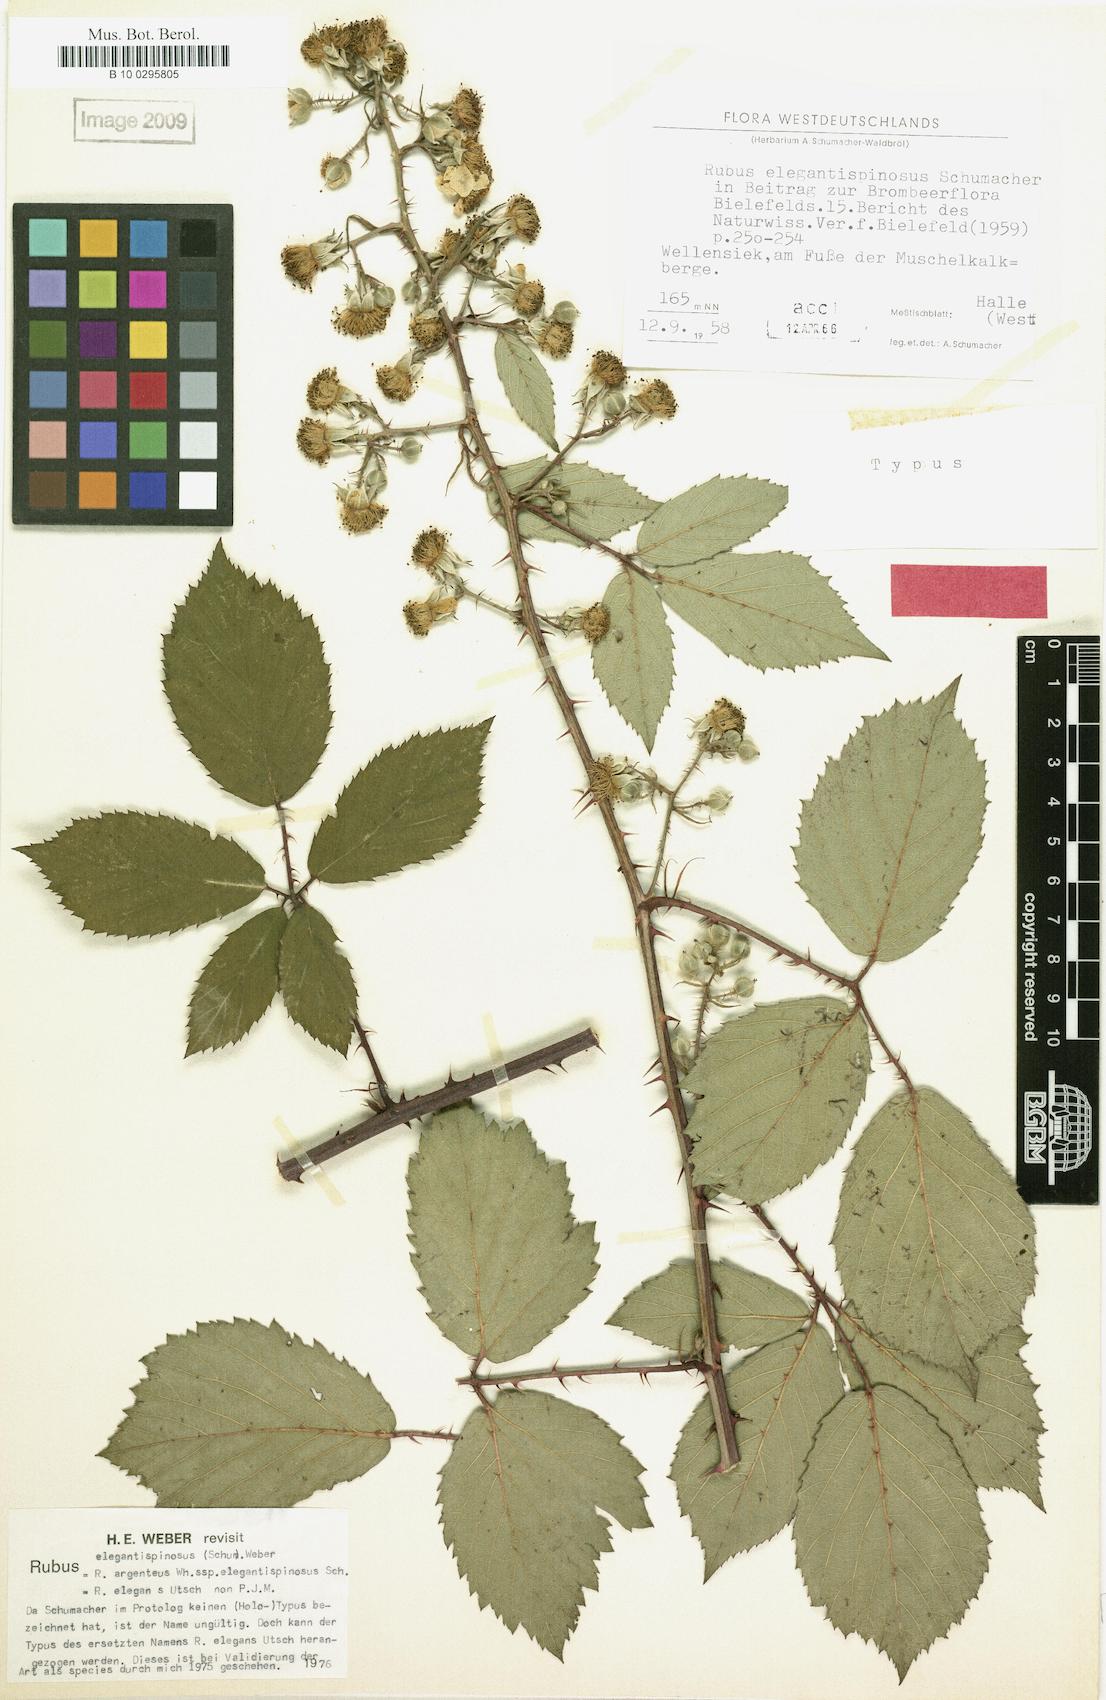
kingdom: Plantae
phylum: Tracheophyta
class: Magnoliopsida
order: Rosales
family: Rosaceae
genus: Rubus
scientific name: Rubus elegantispinosus
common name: Slender spined bramble
